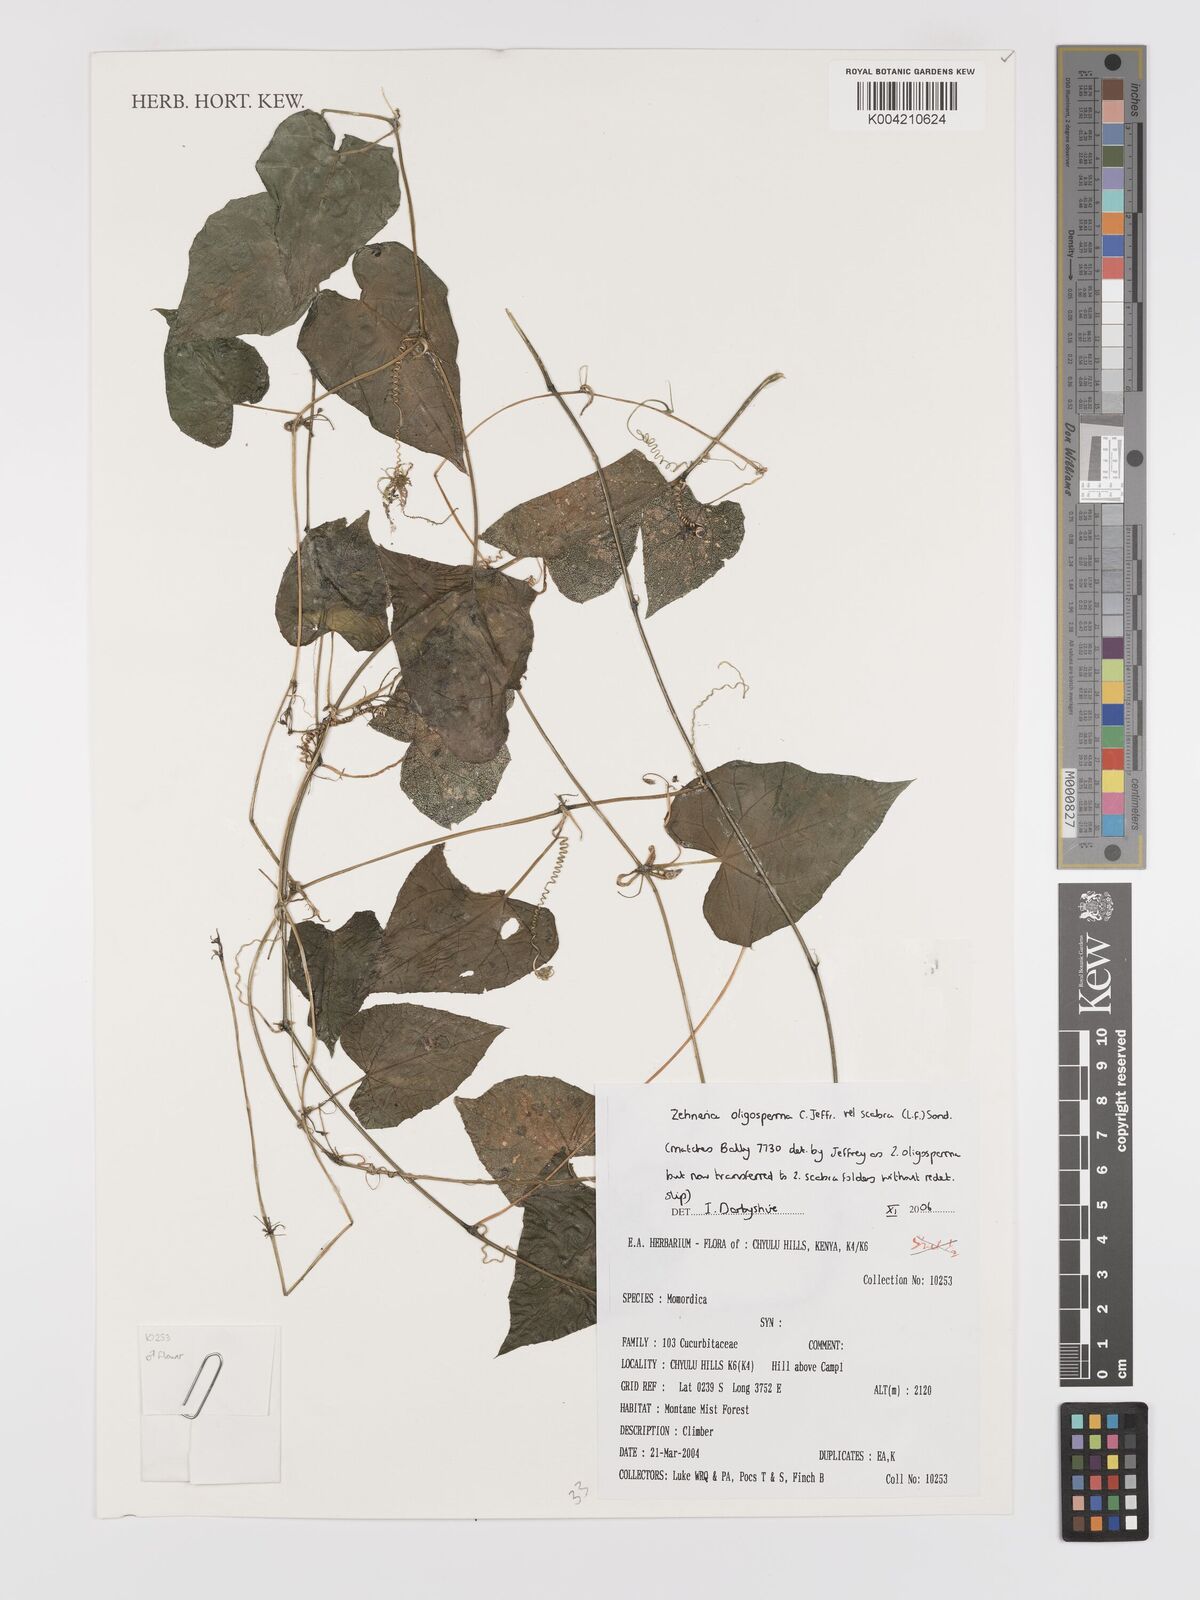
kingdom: Plantae
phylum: Tracheophyta
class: Magnoliopsida
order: Cucurbitales
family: Cucurbitaceae
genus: Zehneria
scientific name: Zehneria oligosperma
